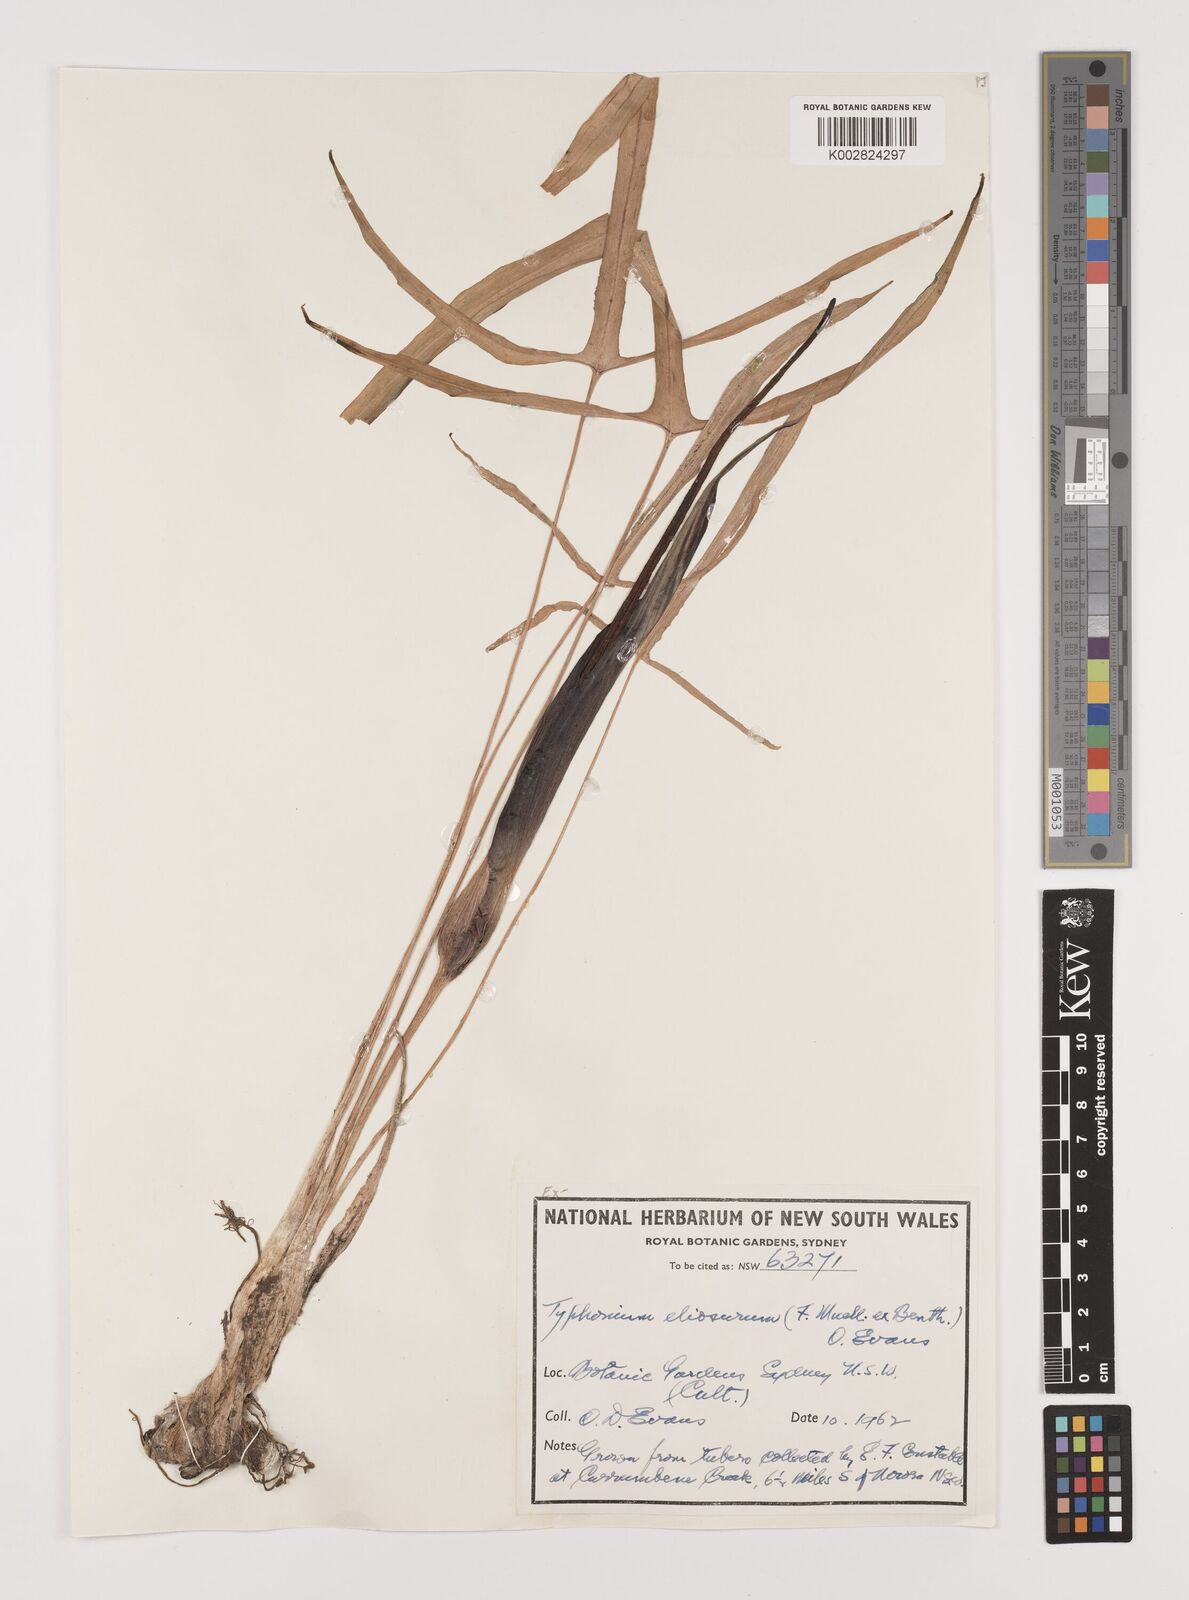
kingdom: Plantae
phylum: Tracheophyta
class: Liliopsida
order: Alismatales
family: Araceae
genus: Typhonium
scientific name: Typhonium eliosurum
